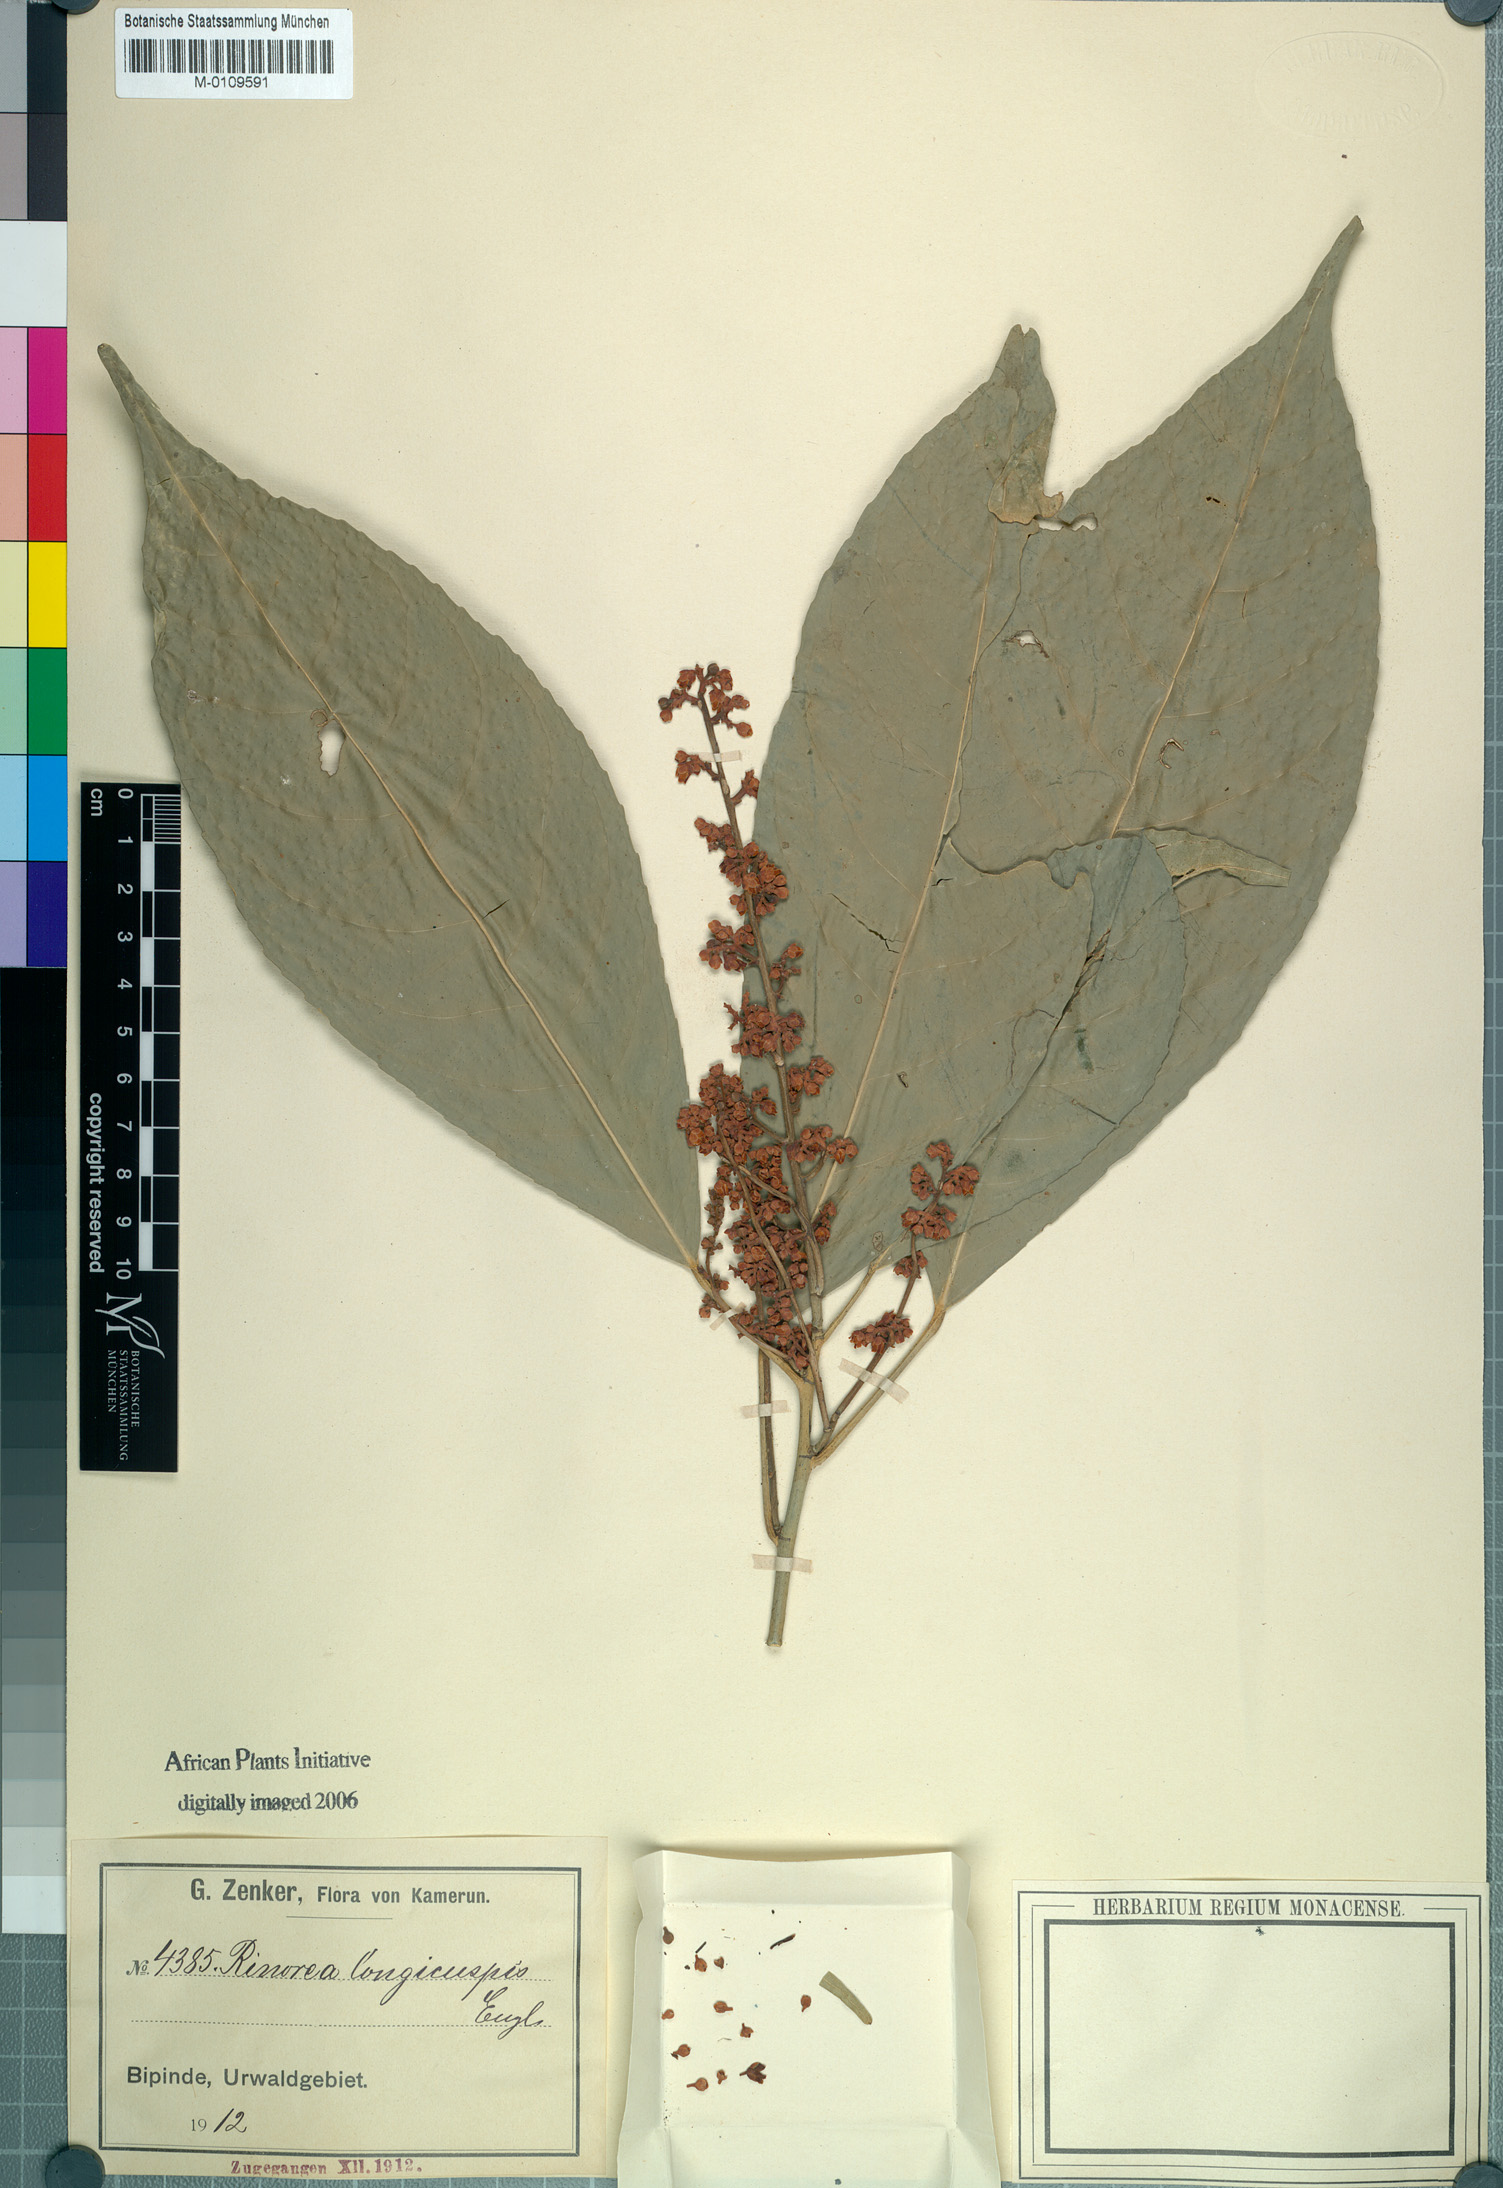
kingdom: Plantae
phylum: Tracheophyta
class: Magnoliopsida
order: Malpighiales
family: Violaceae
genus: Rinorea
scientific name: Rinorea welwitschii
